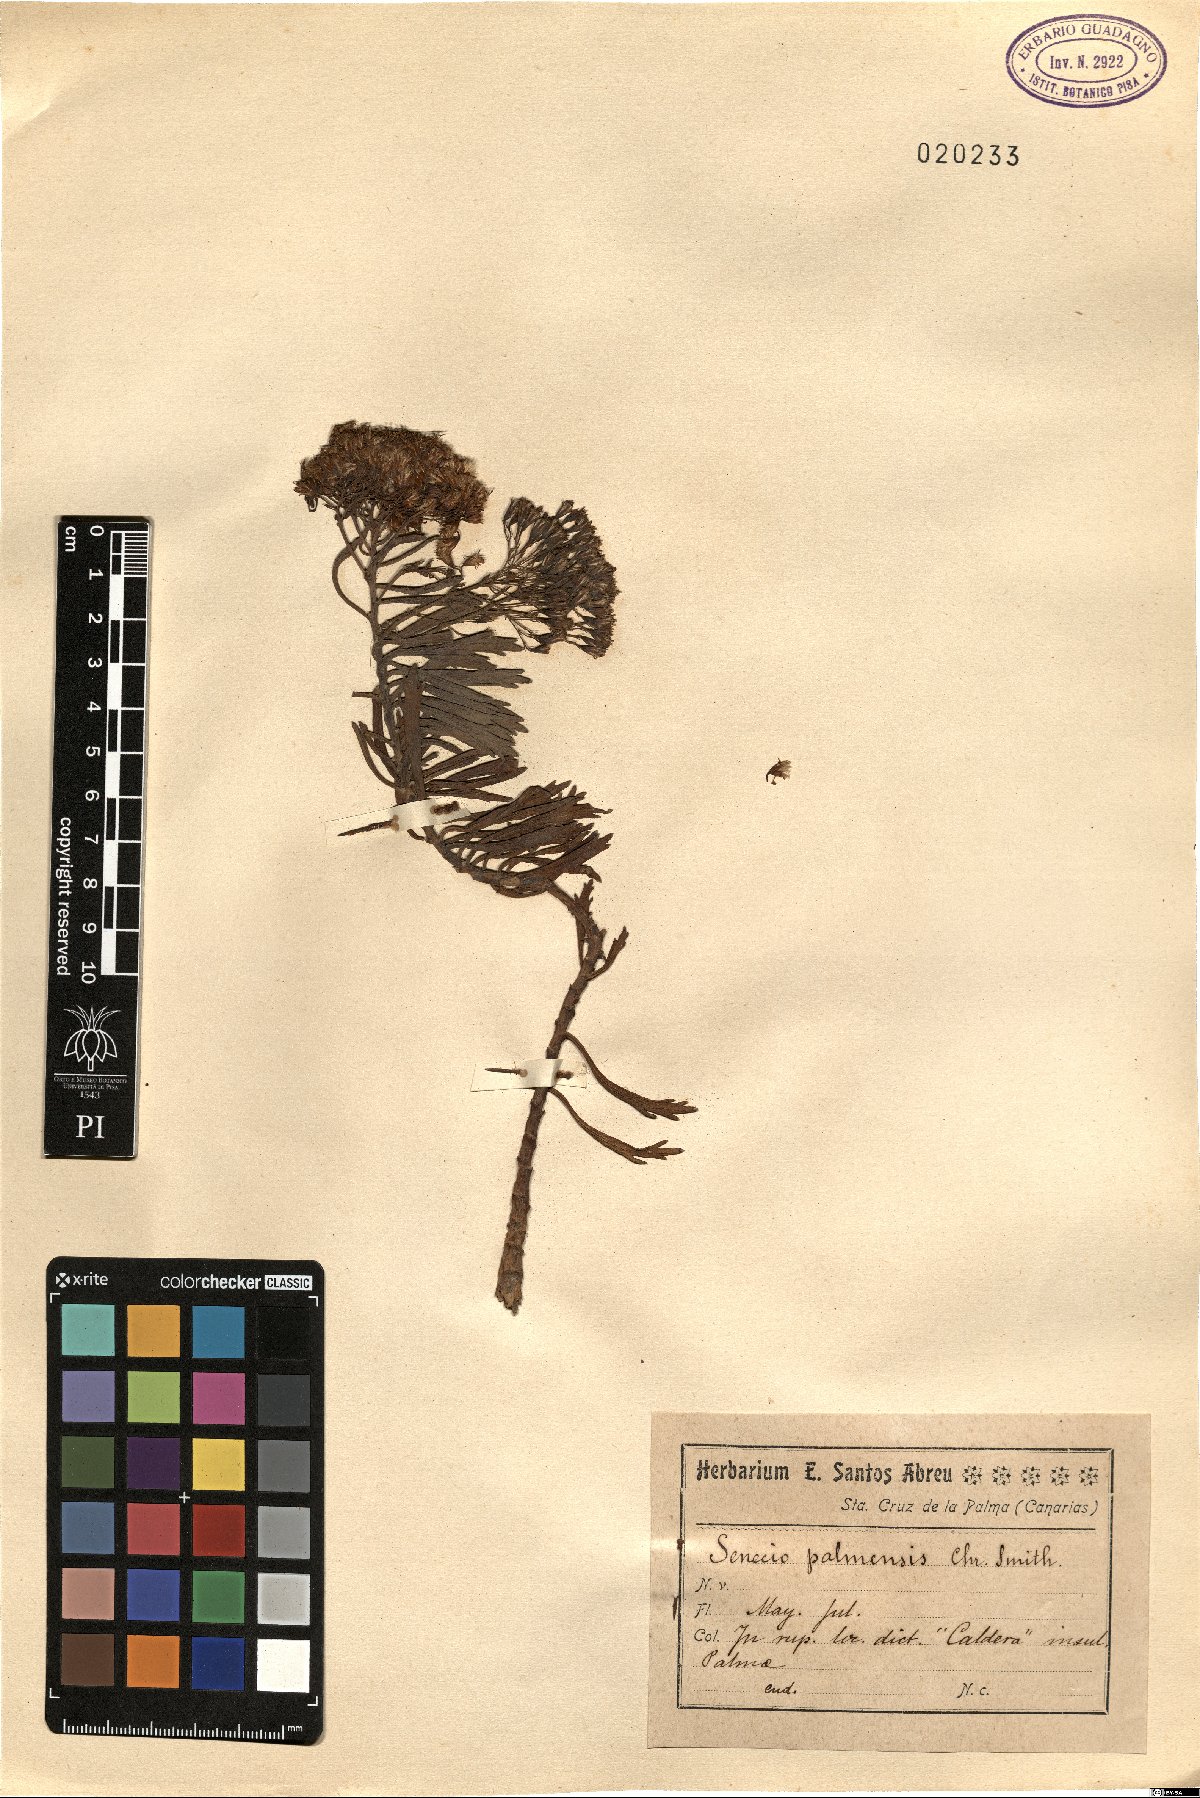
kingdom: Plantae
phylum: Tracheophyta
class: Magnoliopsida
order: Asterales
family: Asteraceae
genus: Bethencourtia
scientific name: Bethencourtia palmensis
